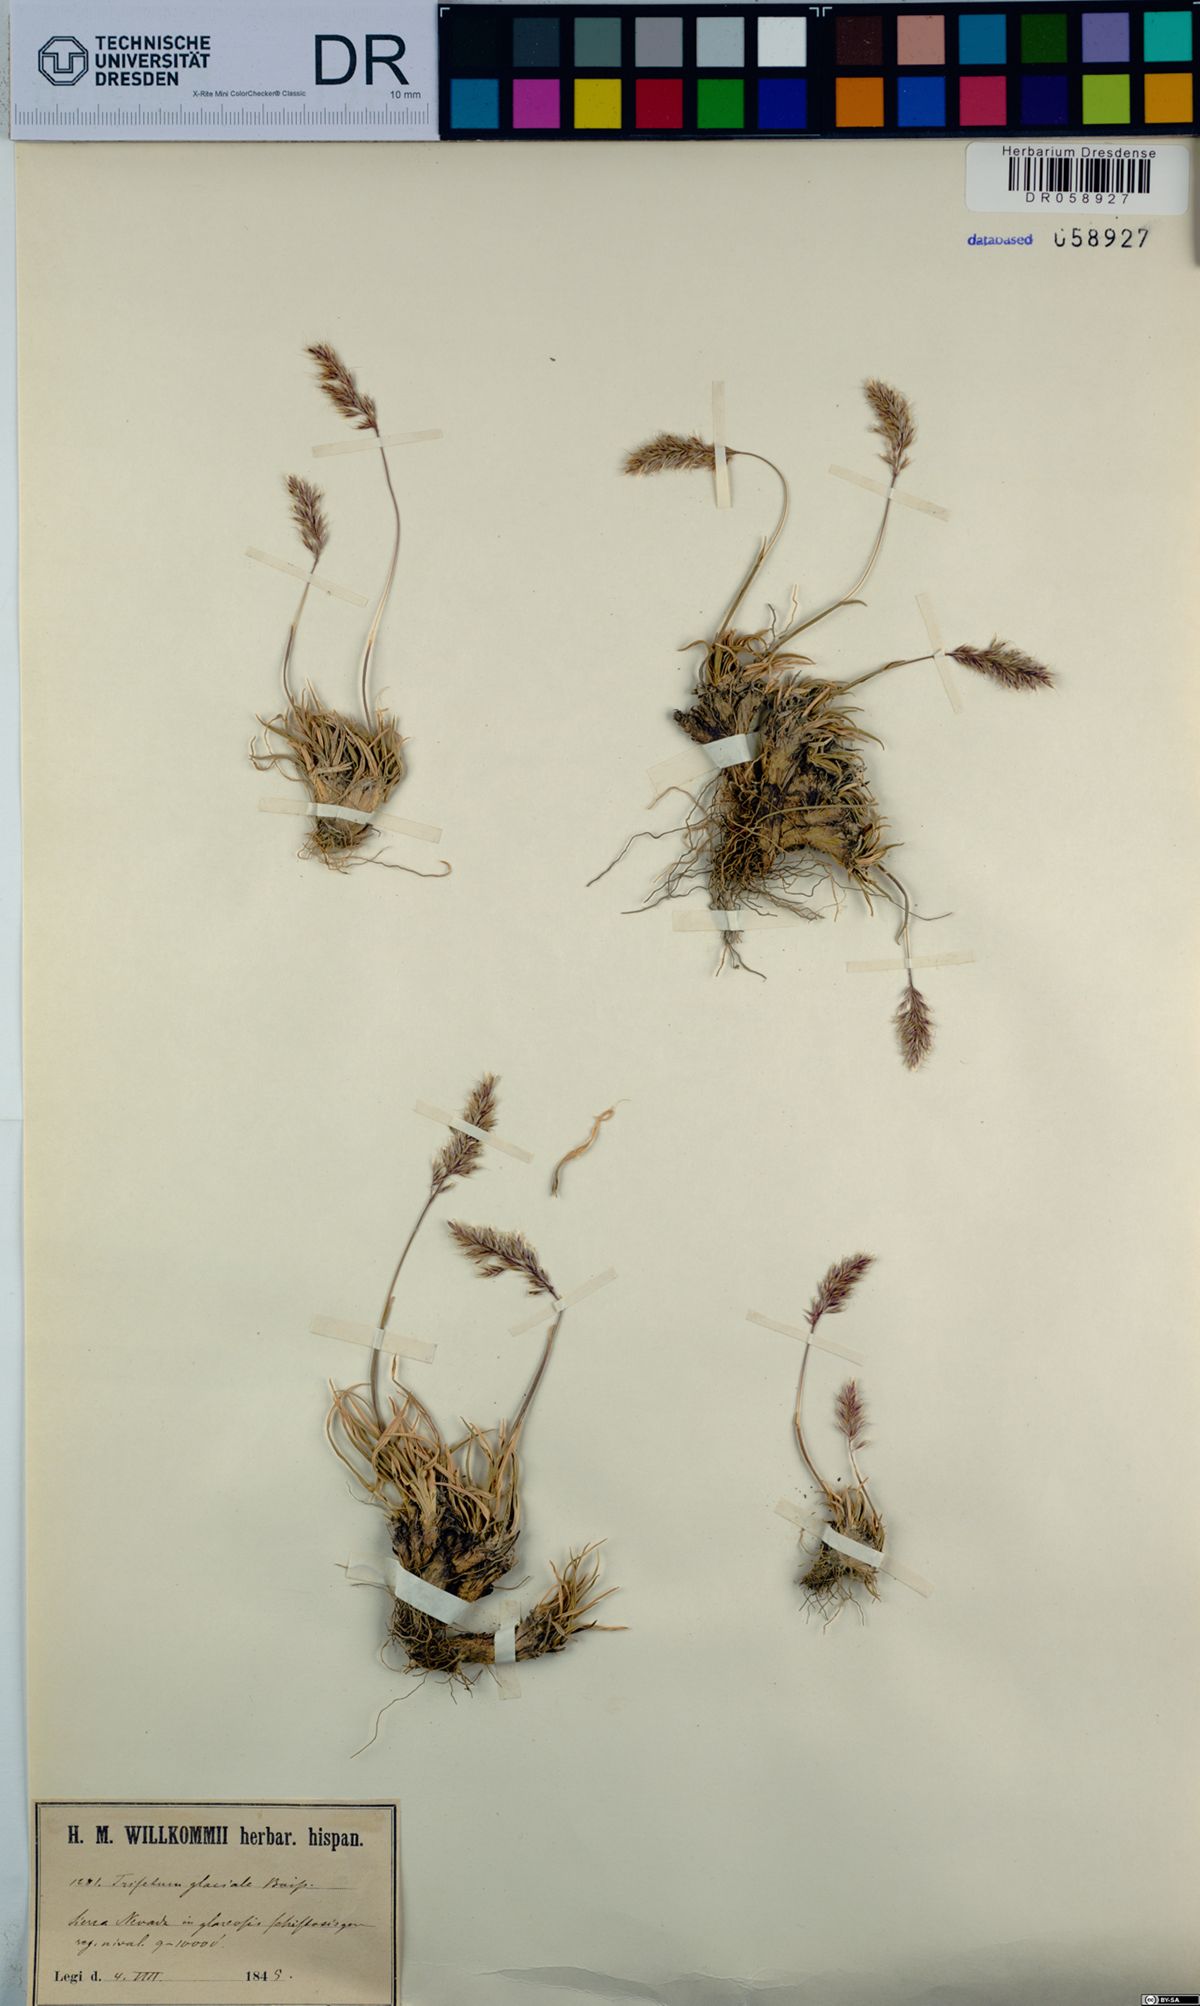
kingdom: Plantae
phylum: Tracheophyta
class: Liliopsida
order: Poales
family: Poaceae
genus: Acrospelion
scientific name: Acrospelion glaciale
